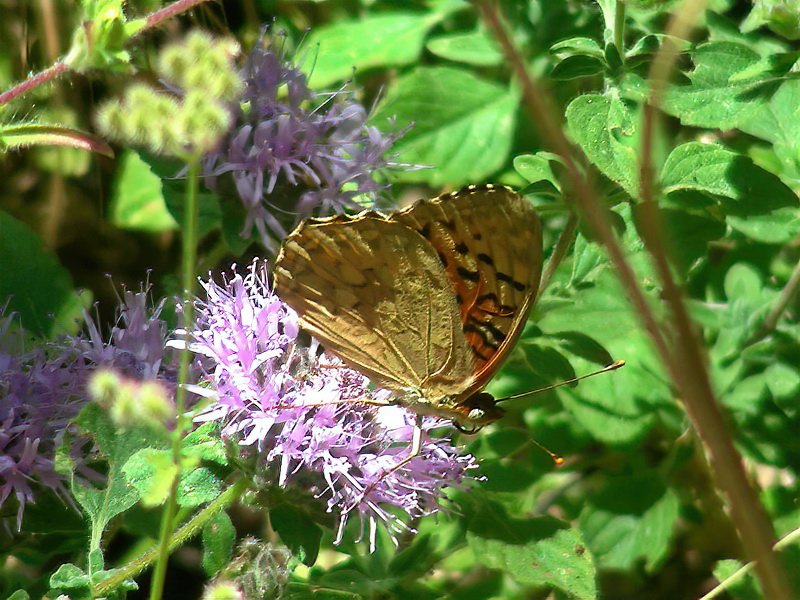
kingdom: Animalia
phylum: Arthropoda
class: Insecta
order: Lepidoptera
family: Nymphalidae
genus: Speyeria
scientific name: Speyeria adiaste
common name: Unsilvered Fritillary
